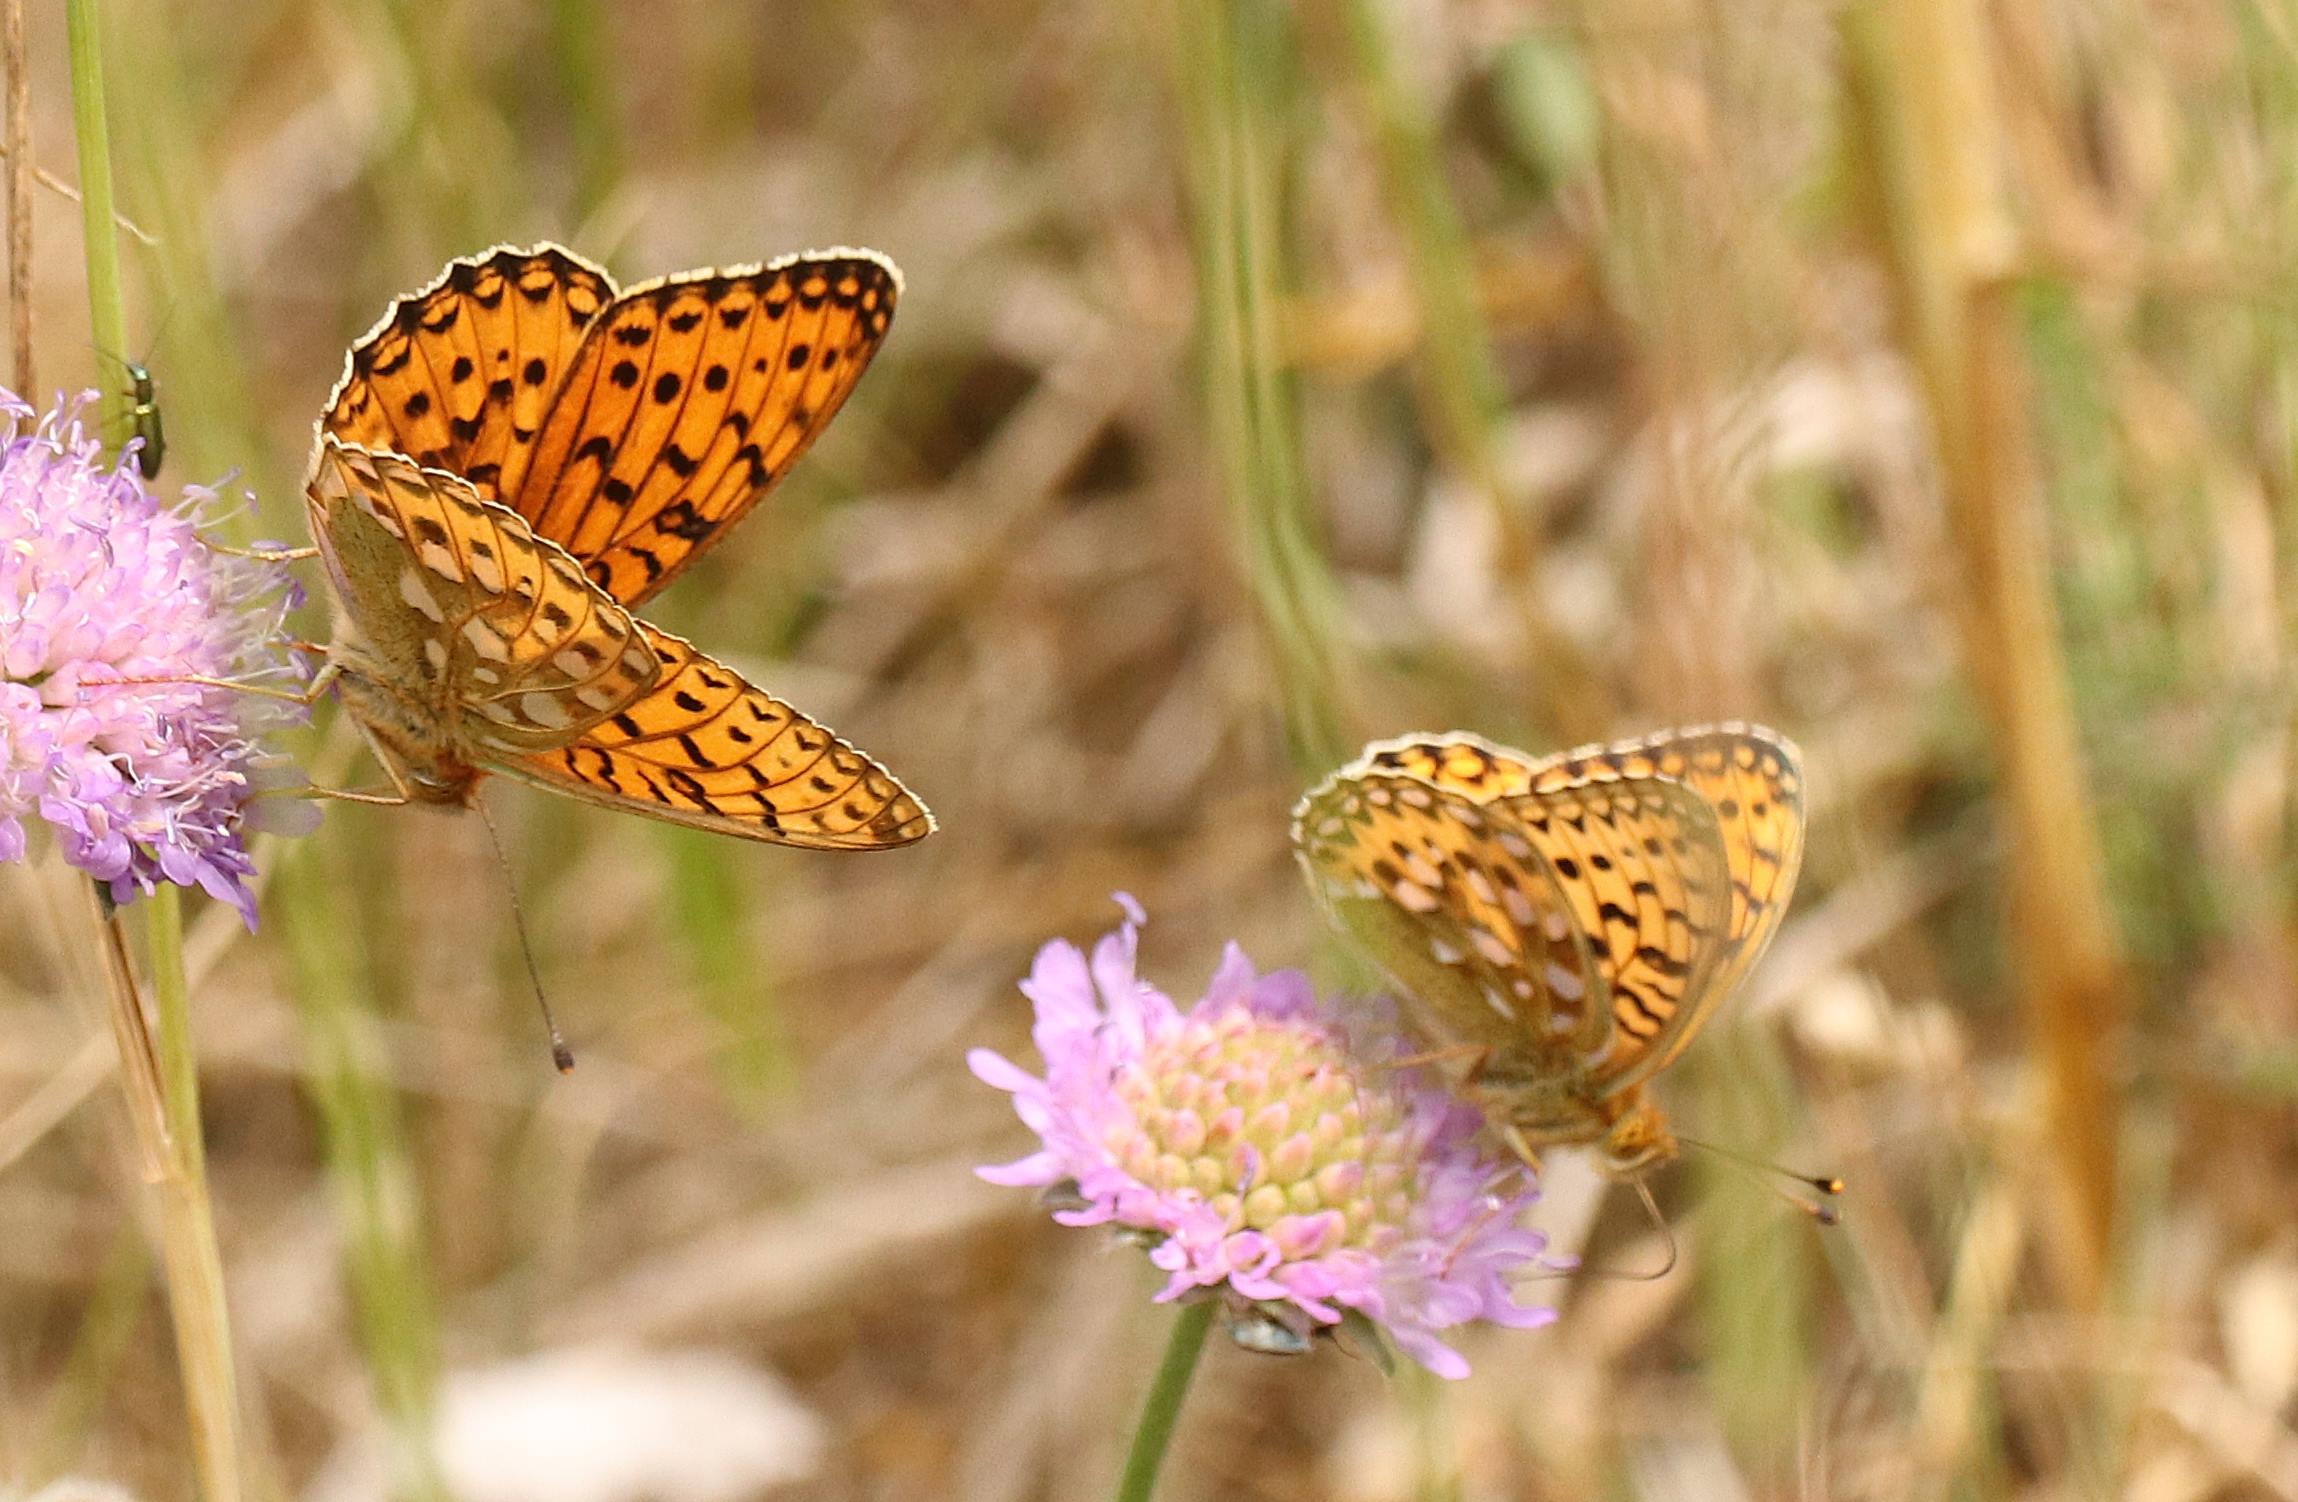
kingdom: Animalia
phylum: Arthropoda
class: Insecta
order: Lepidoptera
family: Nymphalidae
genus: Speyeria
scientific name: Speyeria aglaja
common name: Markperlemorsommerfugl
